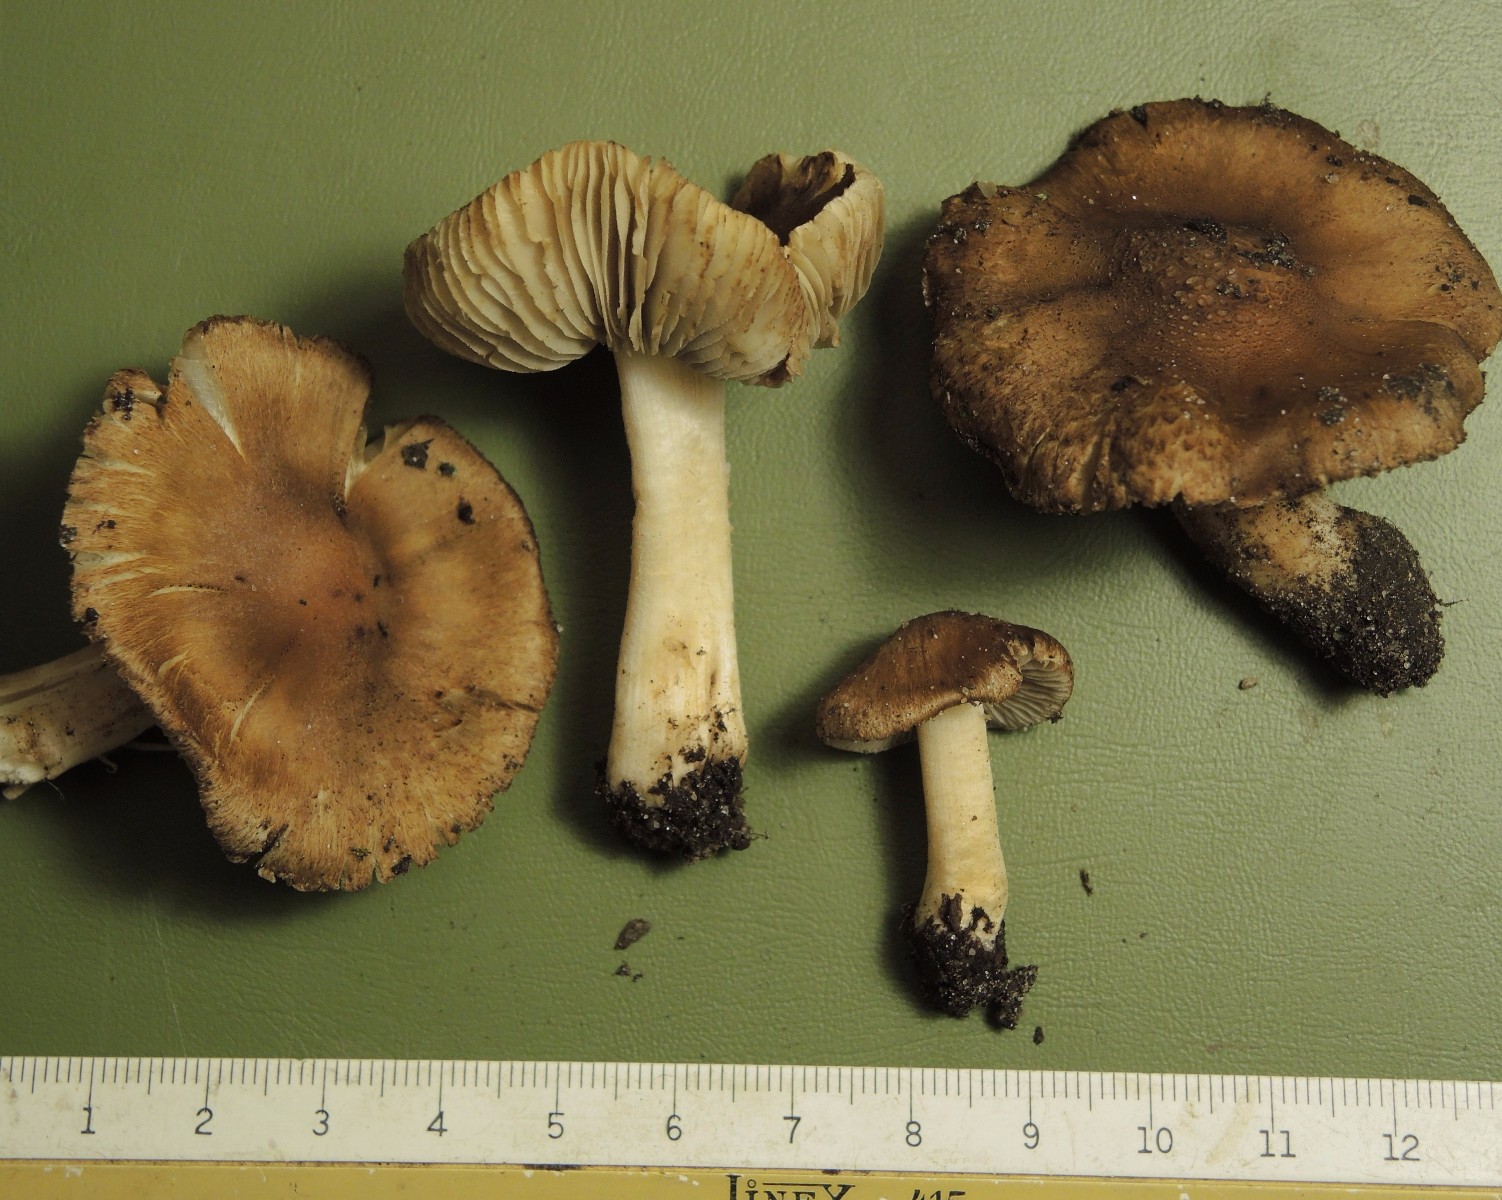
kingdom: Fungi
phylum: Basidiomycota
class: Agaricomycetes
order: Agaricales
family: Inocybaceae
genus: Inocybe
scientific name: Inocybe splendens
